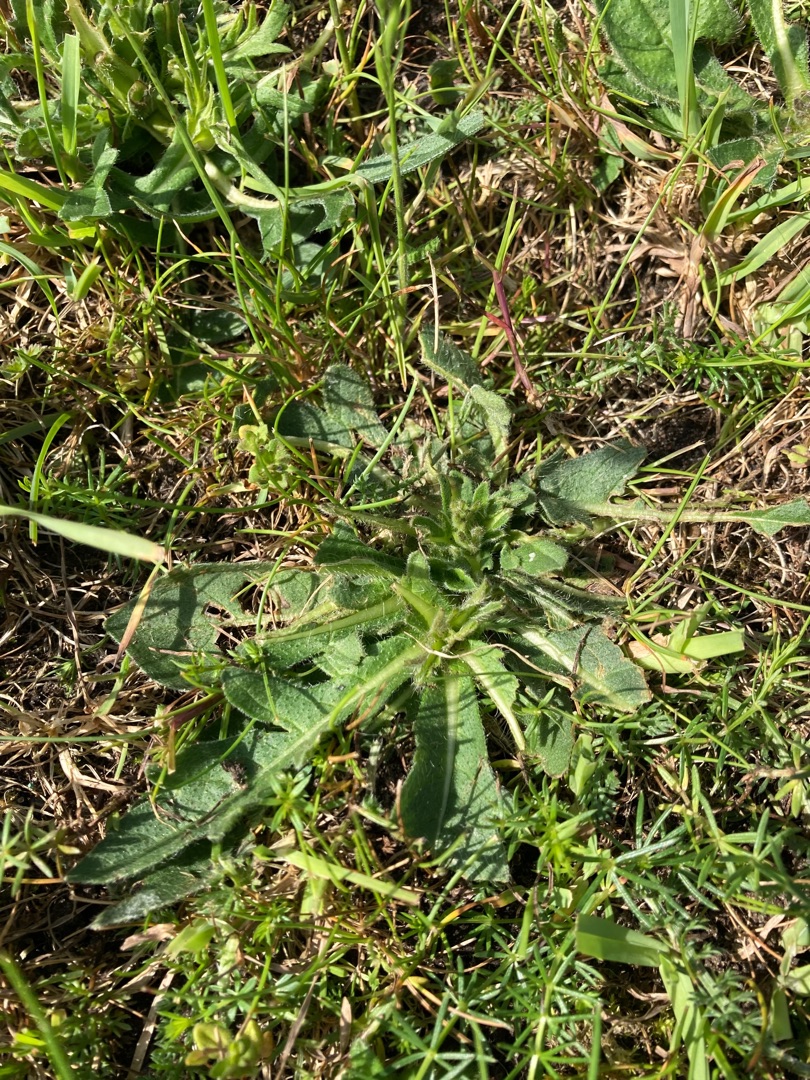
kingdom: Plantae
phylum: Tracheophyta
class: Magnoliopsida
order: Dipsacales
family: Caprifoliaceae
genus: Knautia
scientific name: Knautia arvensis
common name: Blåhat
